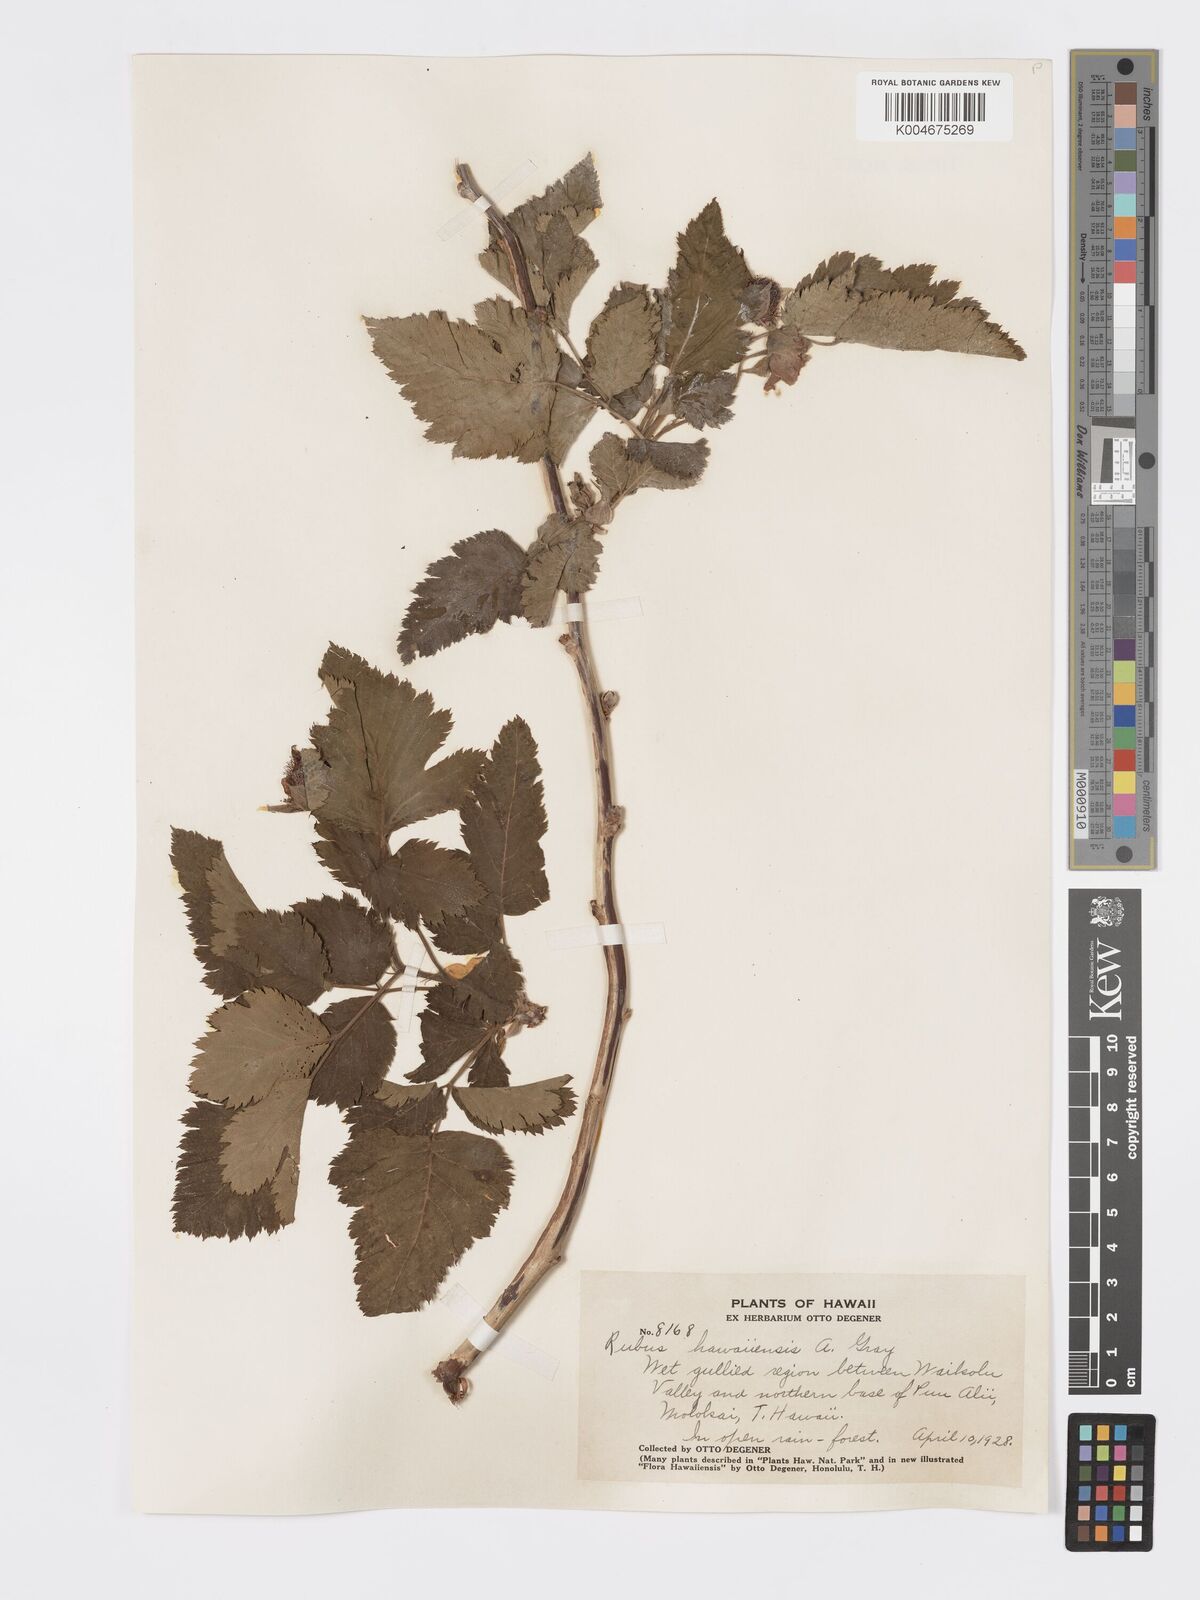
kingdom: Plantae
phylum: Tracheophyta
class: Magnoliopsida
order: Rosales
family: Rosaceae
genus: Rubus
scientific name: Rubus hawaiensis
